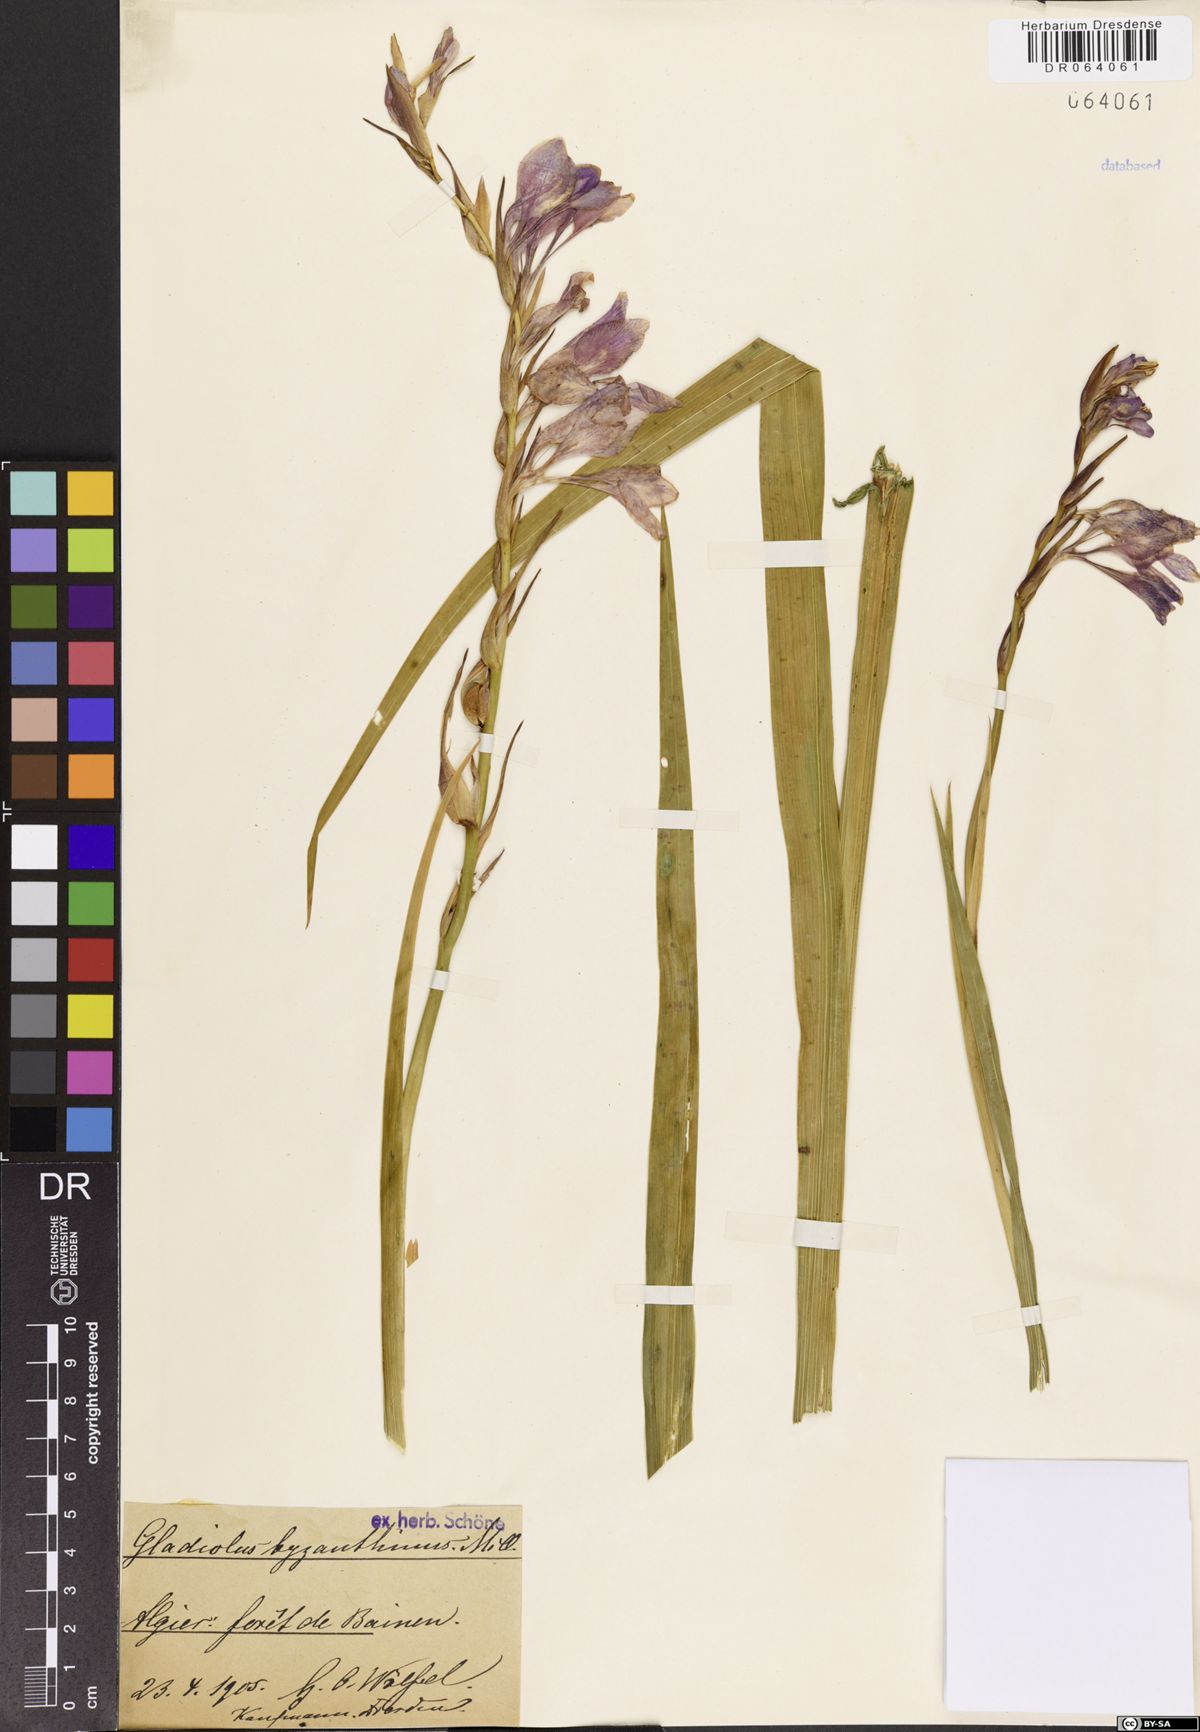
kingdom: Plantae
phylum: Tracheophyta
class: Liliopsida
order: Asparagales
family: Iridaceae
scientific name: Iridaceae
